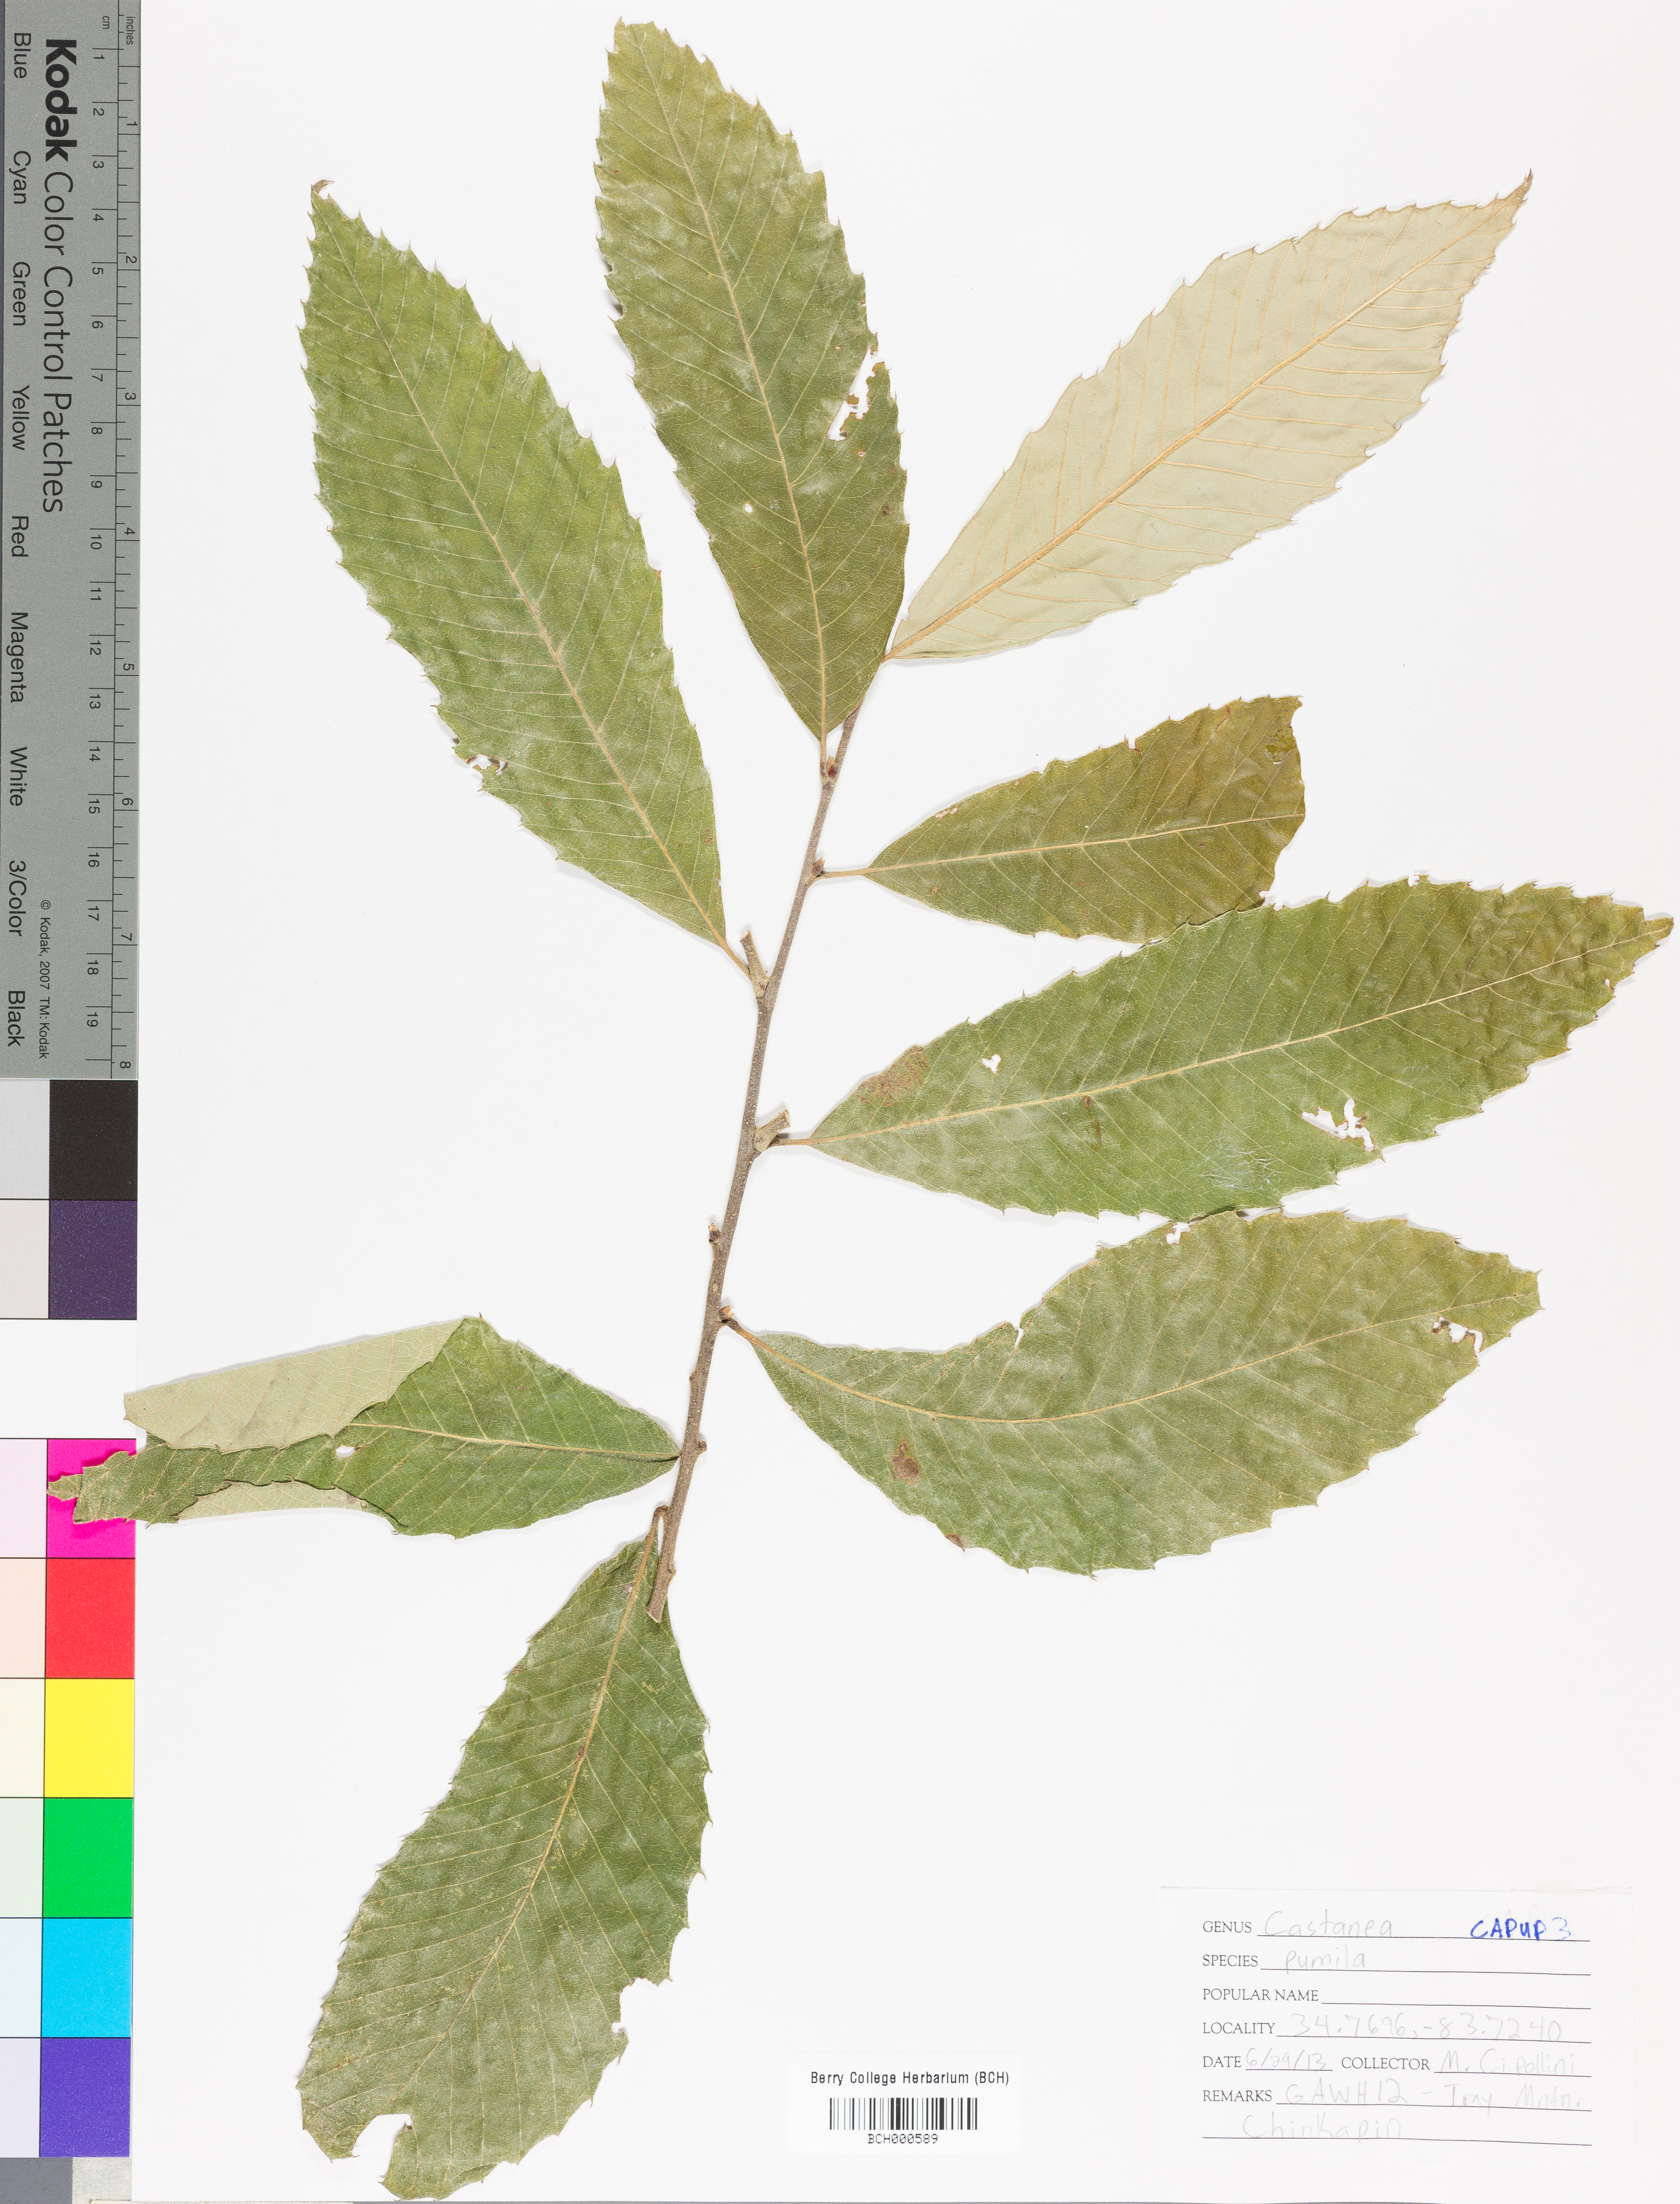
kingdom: Plantae
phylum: Tracheophyta
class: Magnoliopsida
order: Fagales
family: Fagaceae
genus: Castanea
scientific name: Castanea pumila
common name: Chinkapin
